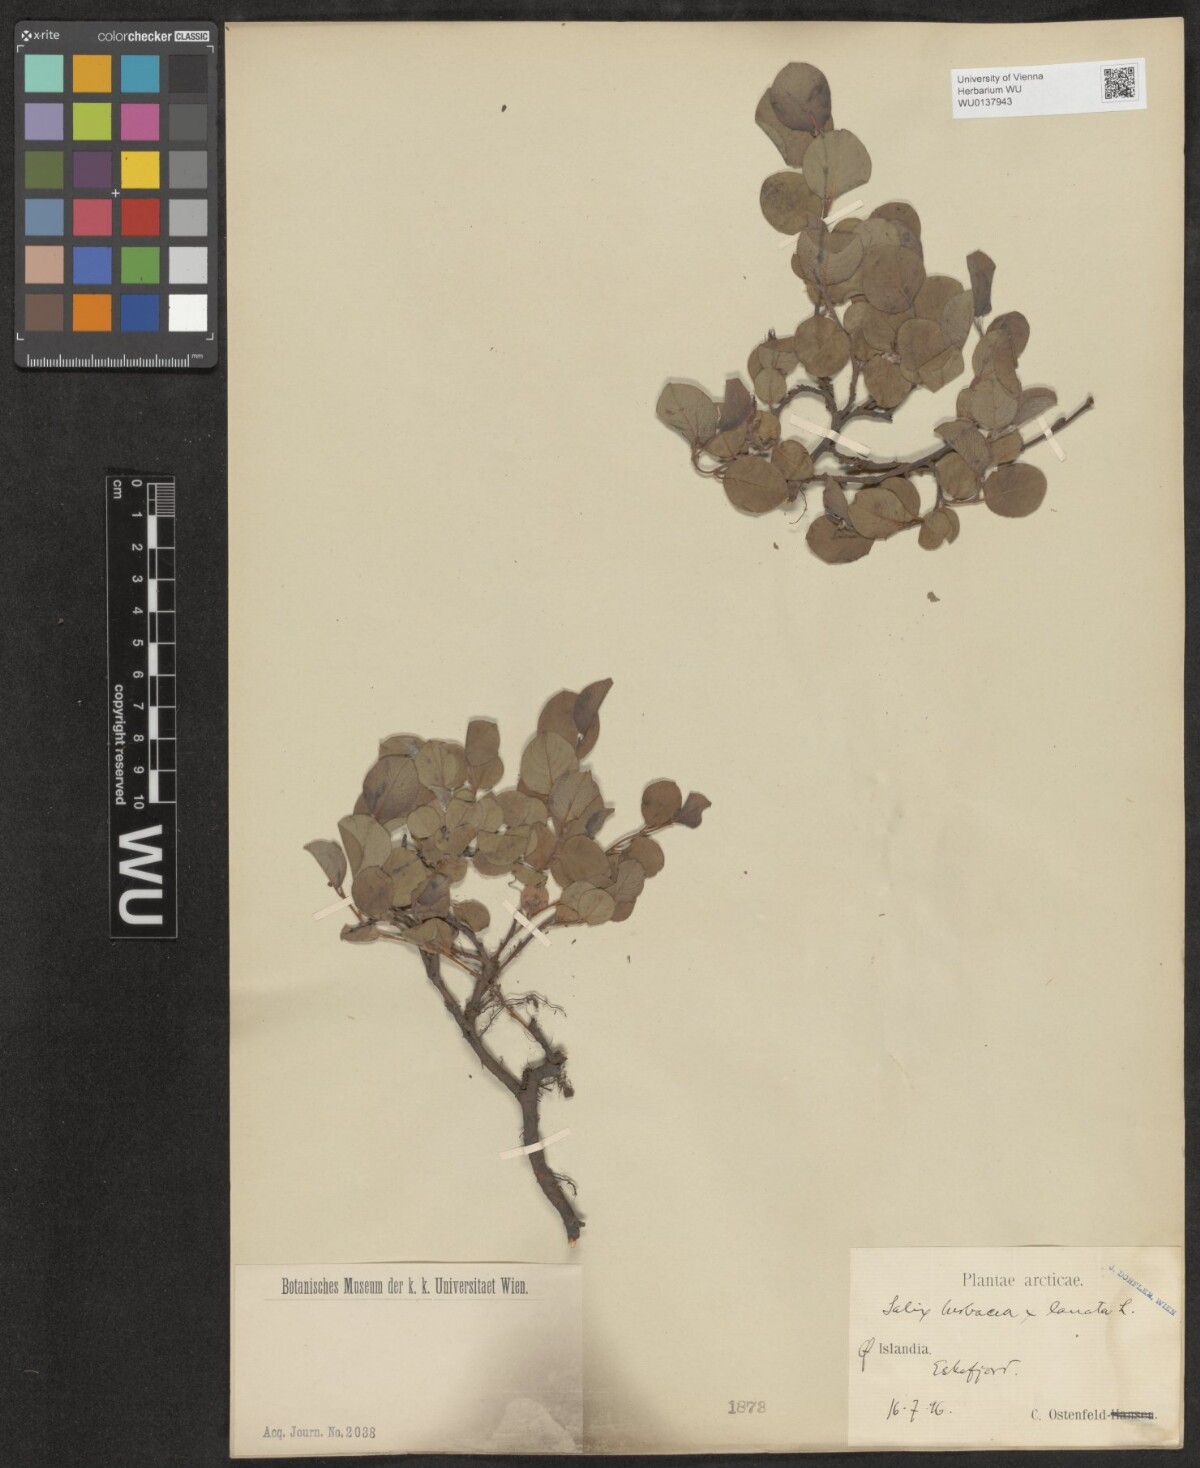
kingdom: Plantae
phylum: Tracheophyta
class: Magnoliopsida
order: Malpighiales
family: Salicaceae
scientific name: Salicaceae
